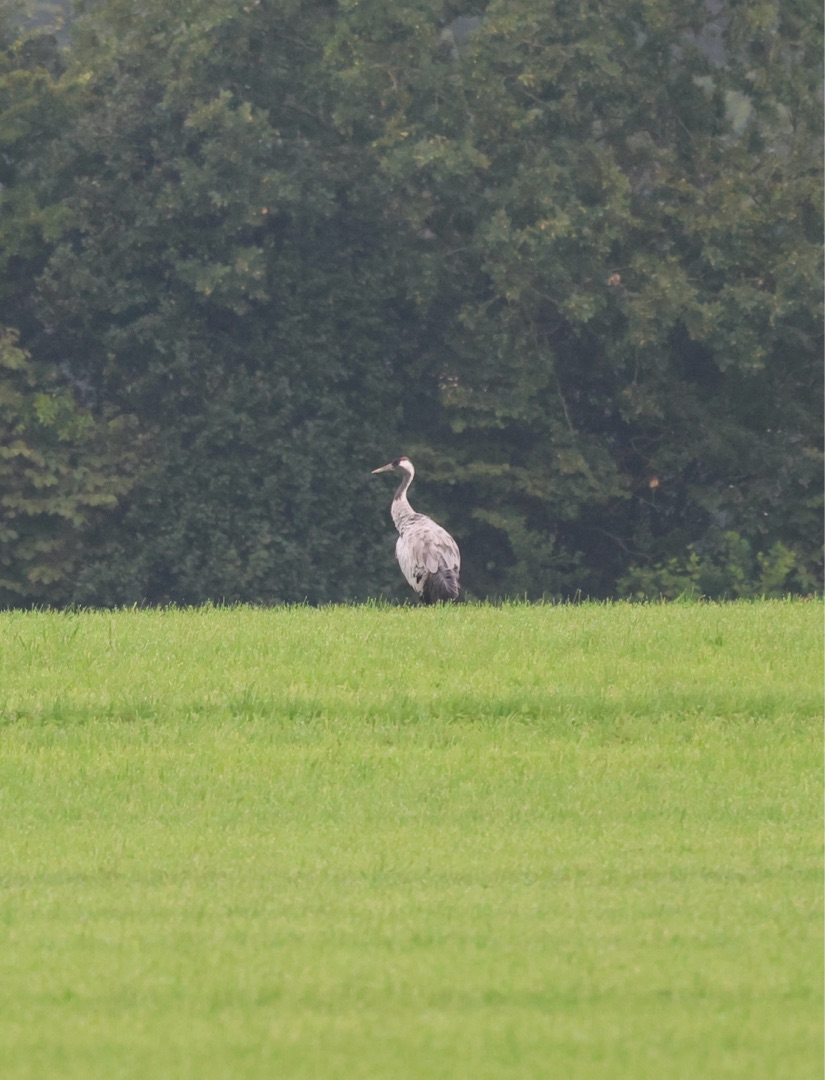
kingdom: Animalia
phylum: Chordata
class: Aves
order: Gruiformes
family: Gruidae
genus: Grus
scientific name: Grus grus
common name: Trane
